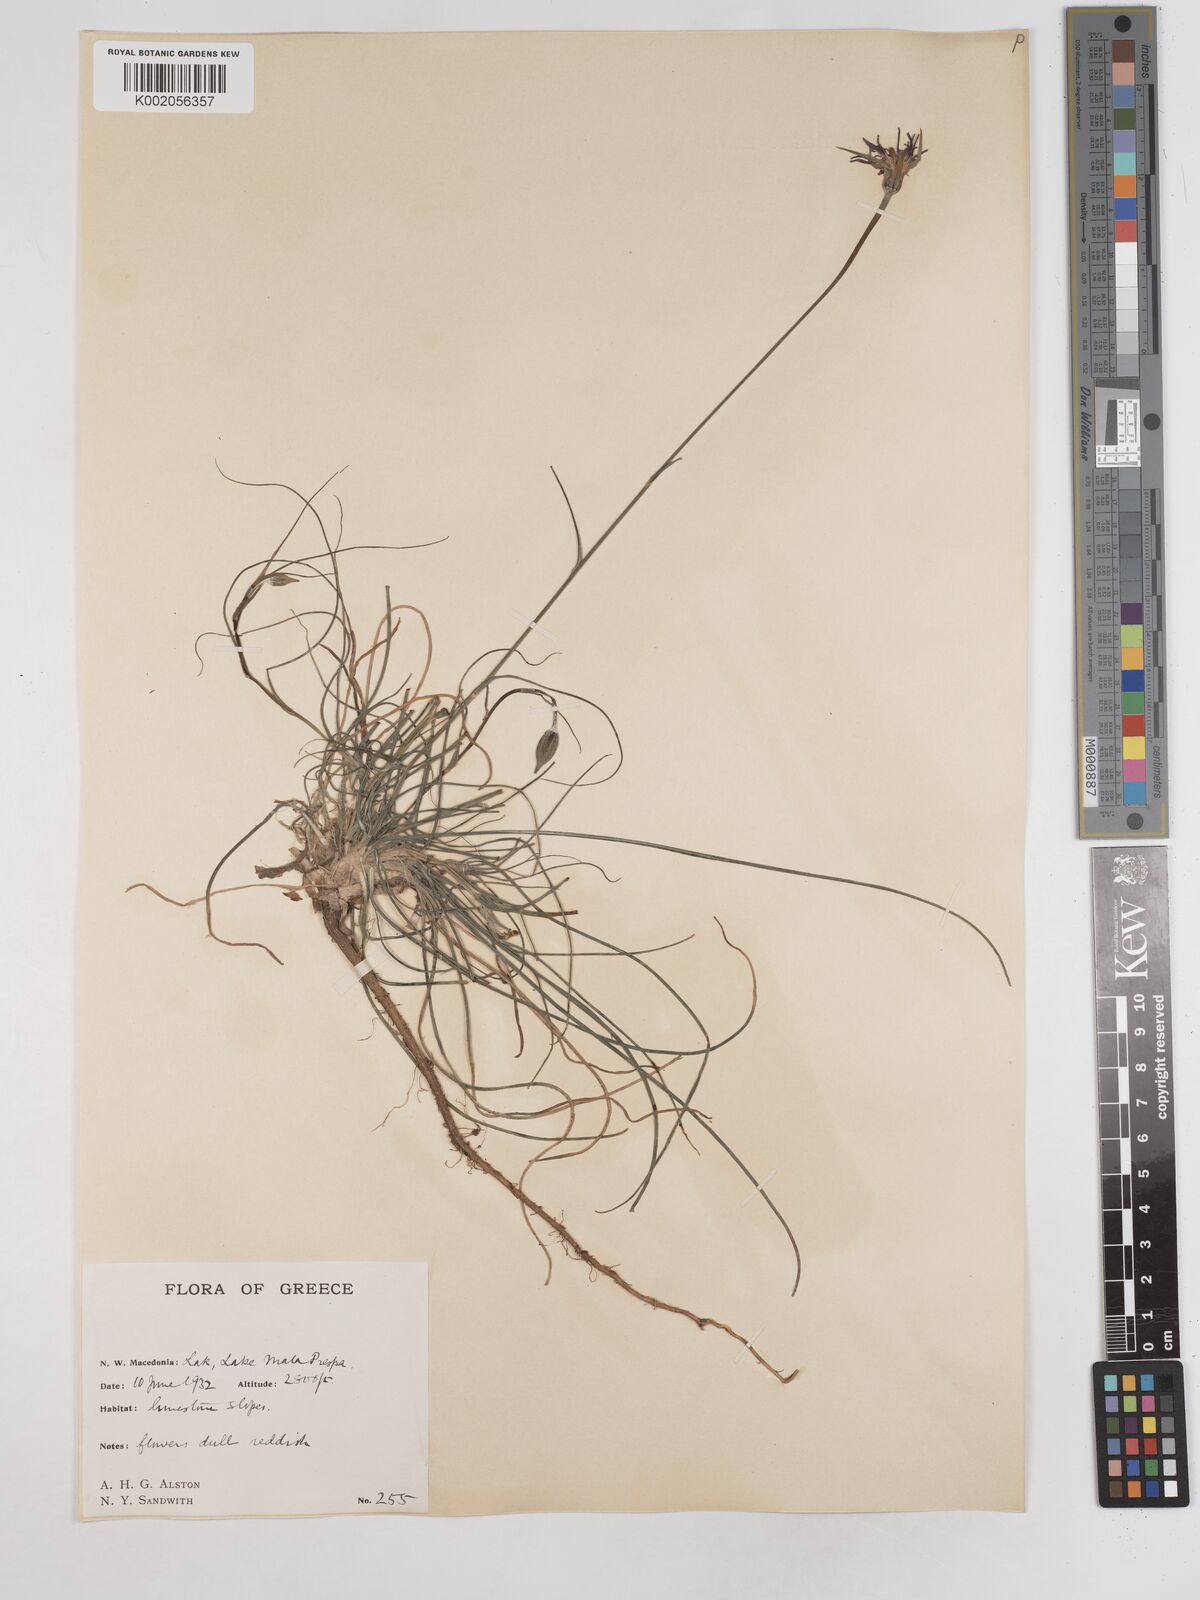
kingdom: Plantae
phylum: Tracheophyta
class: Magnoliopsida
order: Asterales
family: Asteraceae
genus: Tragopogon
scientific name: Tragopogon balcanicus
